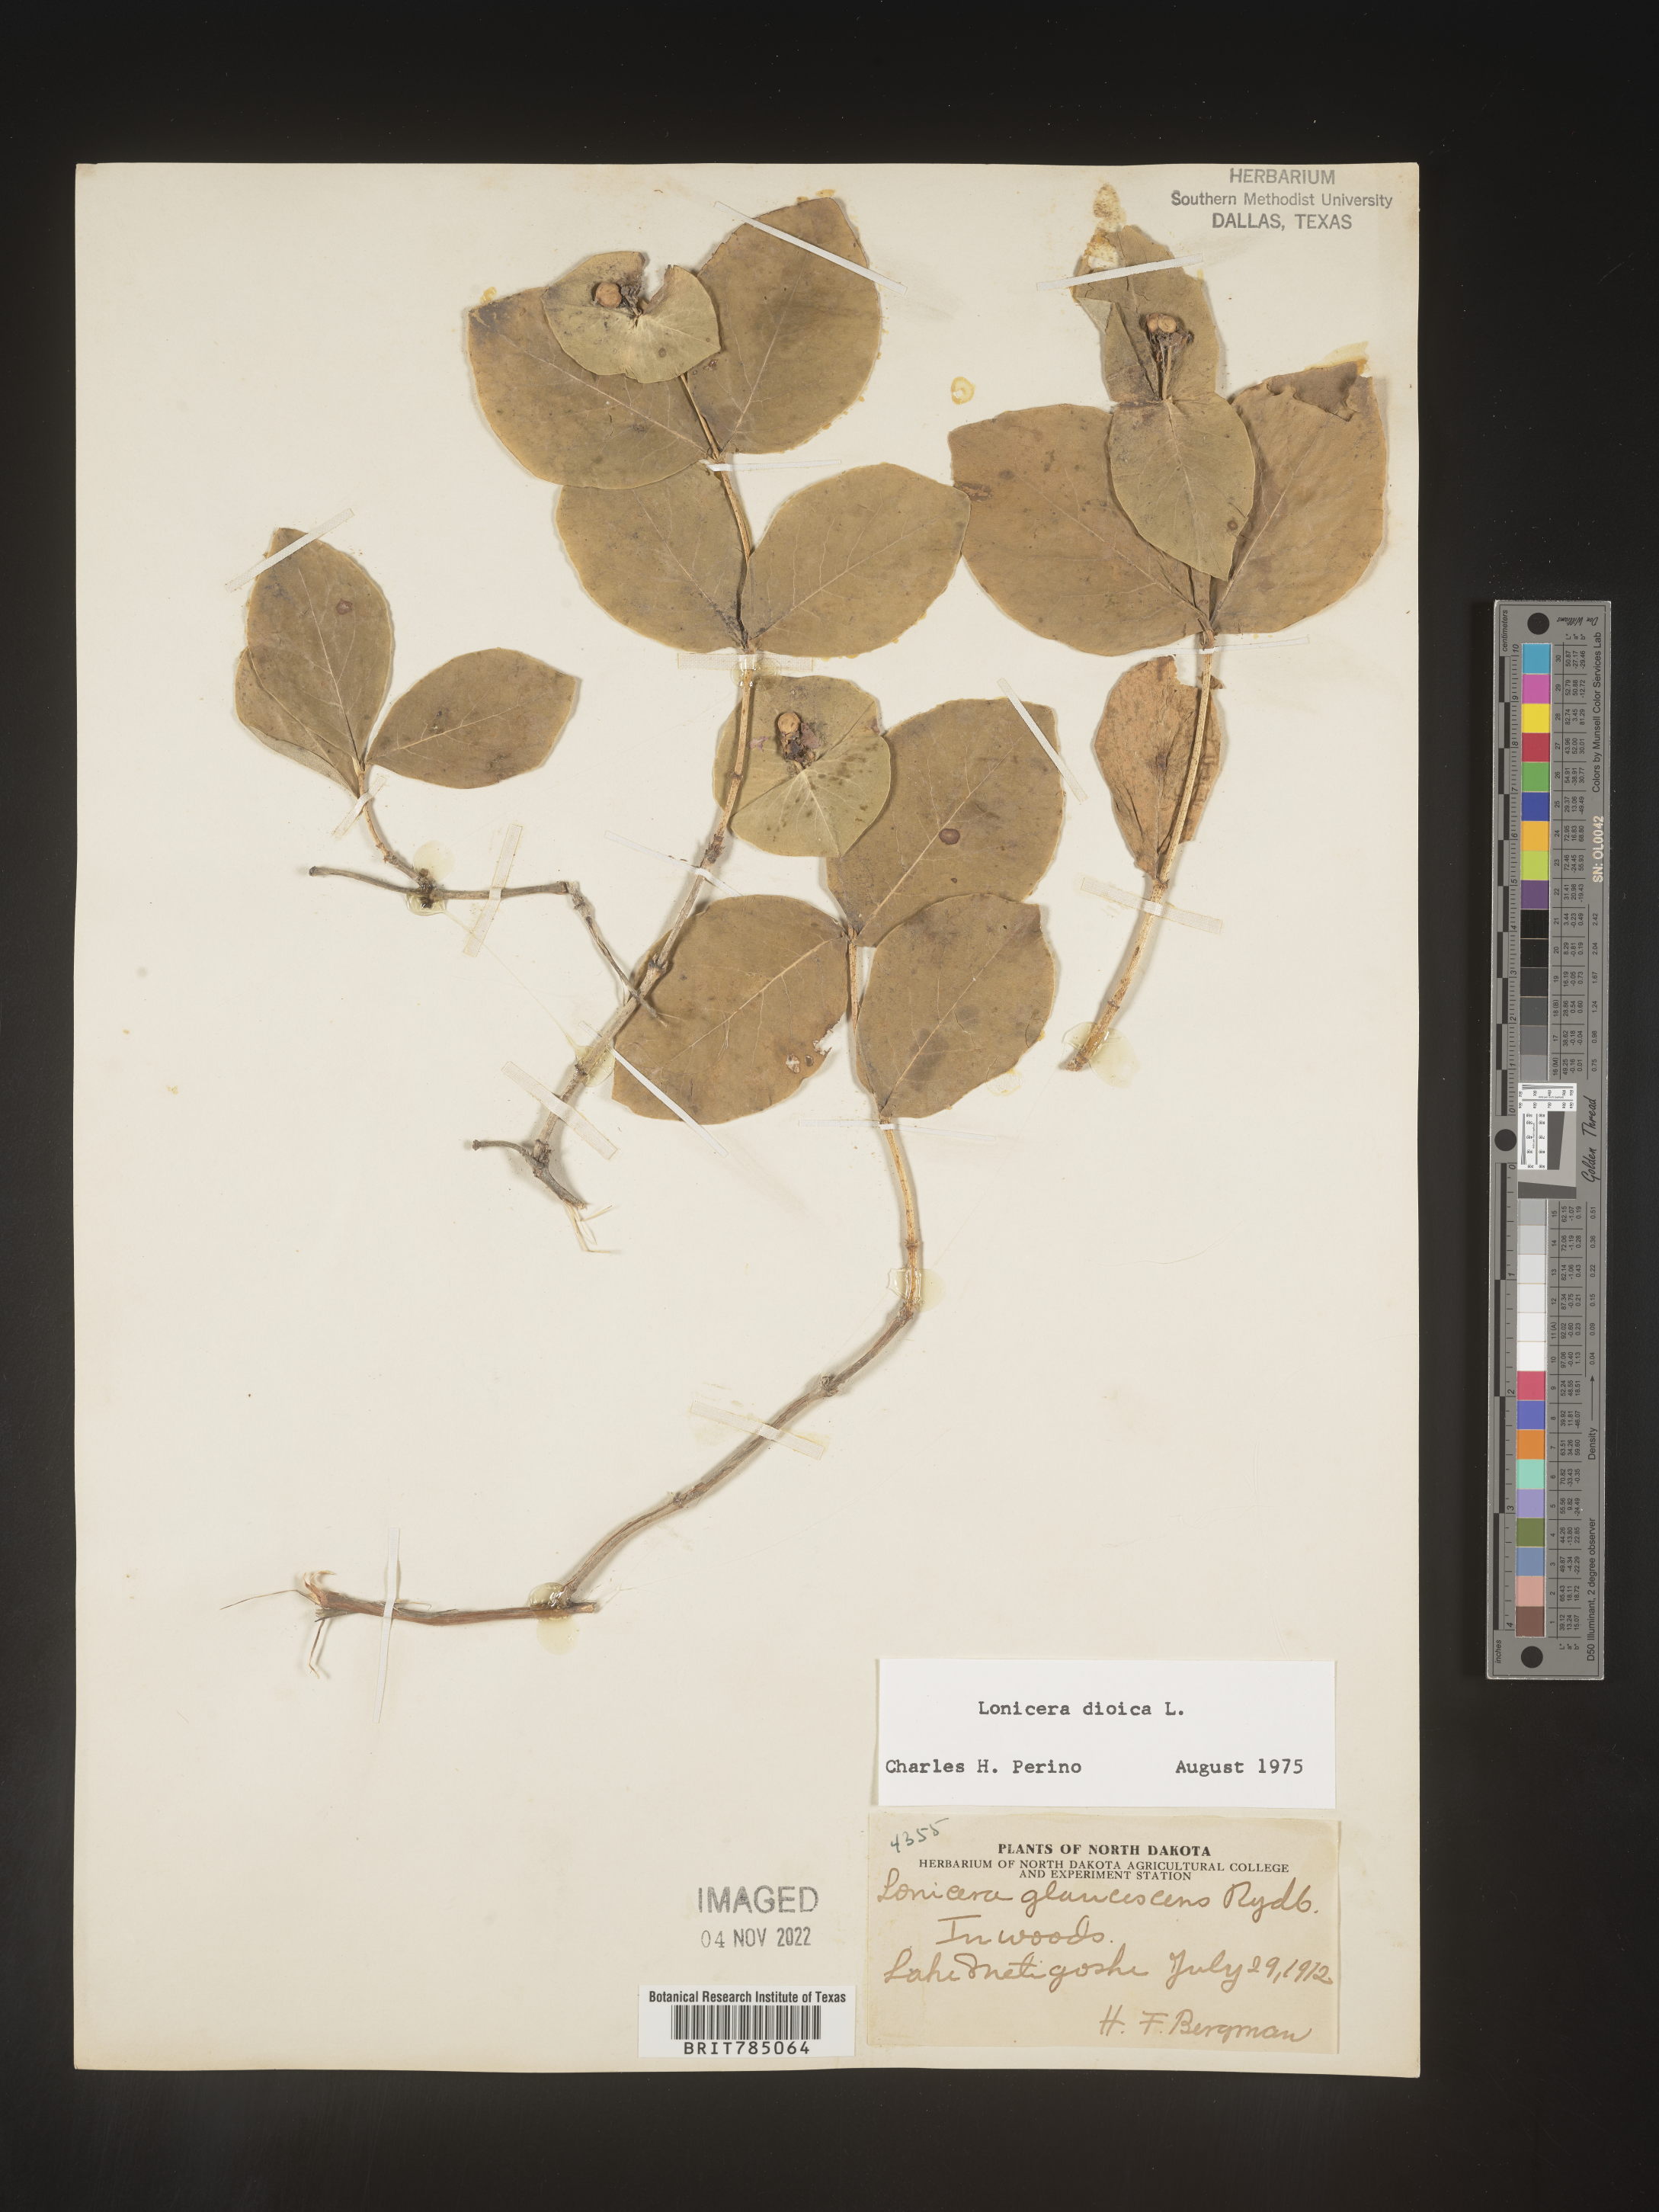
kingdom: Plantae
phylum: Tracheophyta
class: Magnoliopsida
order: Dipsacales
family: Caprifoliaceae
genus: Lonicera
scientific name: Lonicera dioica
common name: Limber honeysuckle
